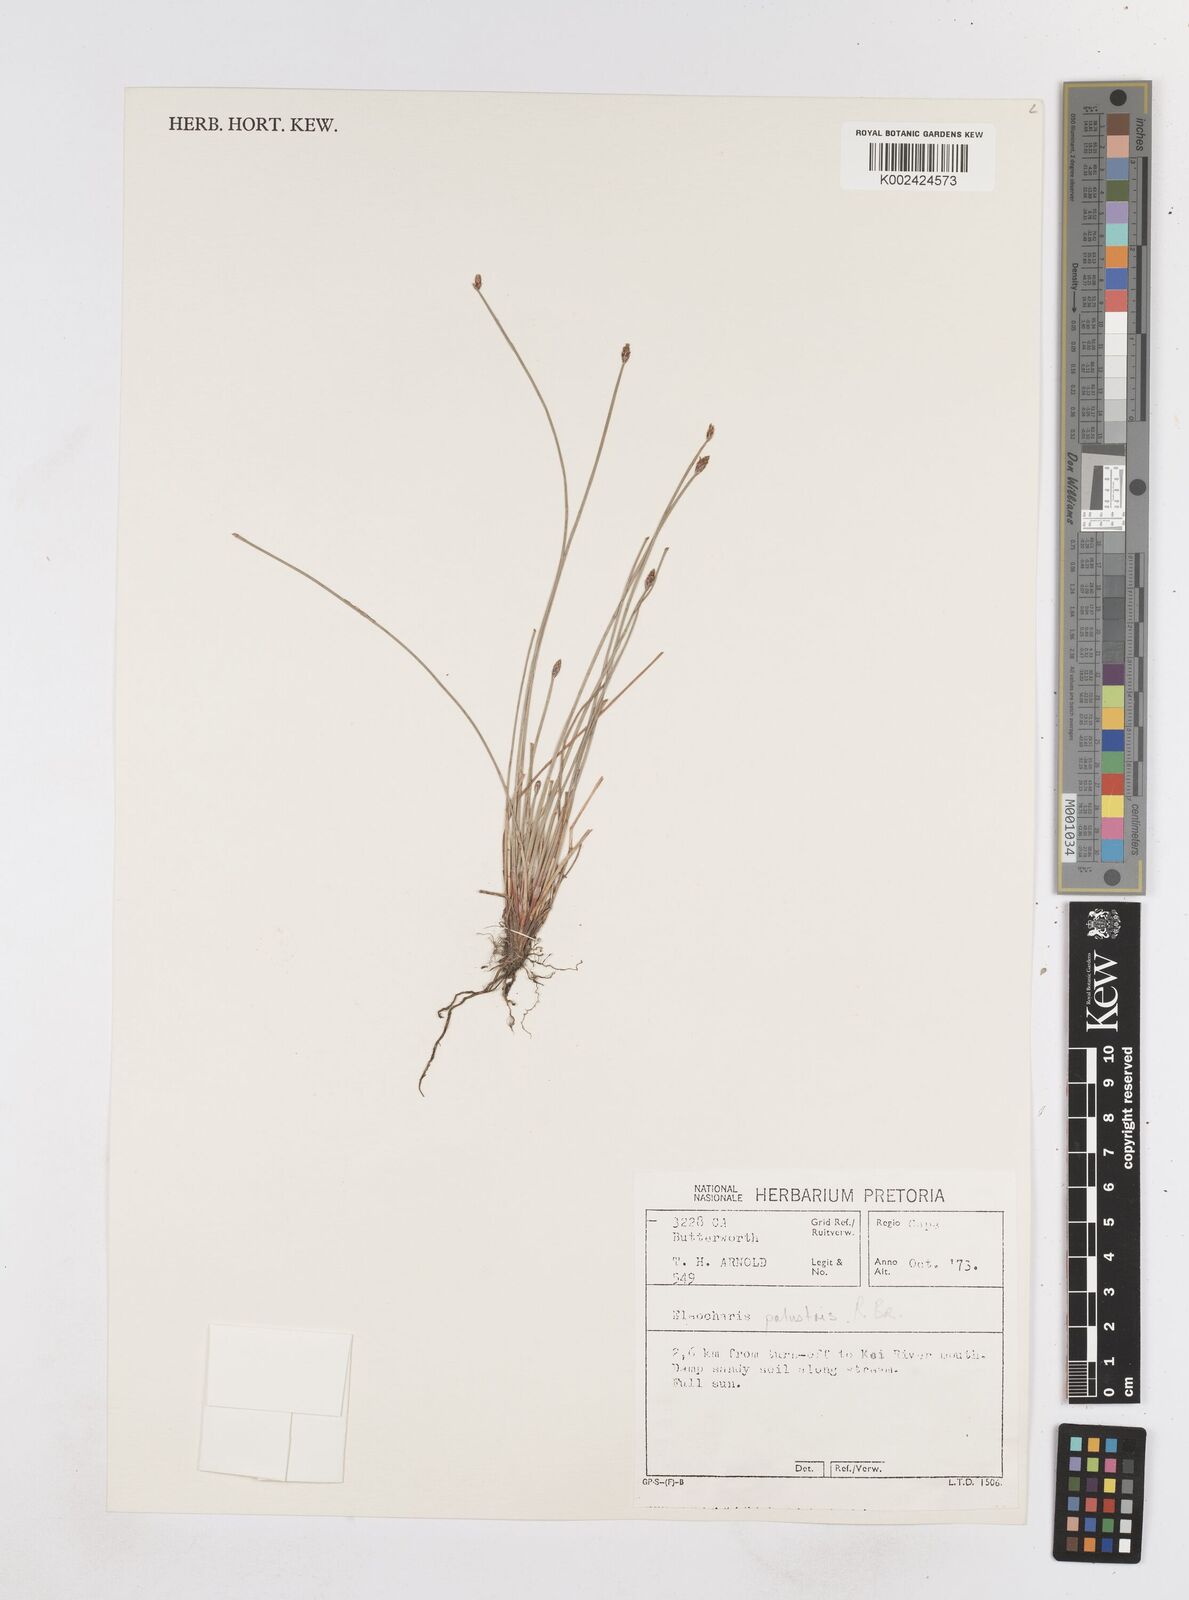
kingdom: Plantae
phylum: Tracheophyta
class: Liliopsida
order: Poales
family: Cyperaceae
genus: Eleocharis
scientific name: Eleocharis palustris
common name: Common spike-rush
